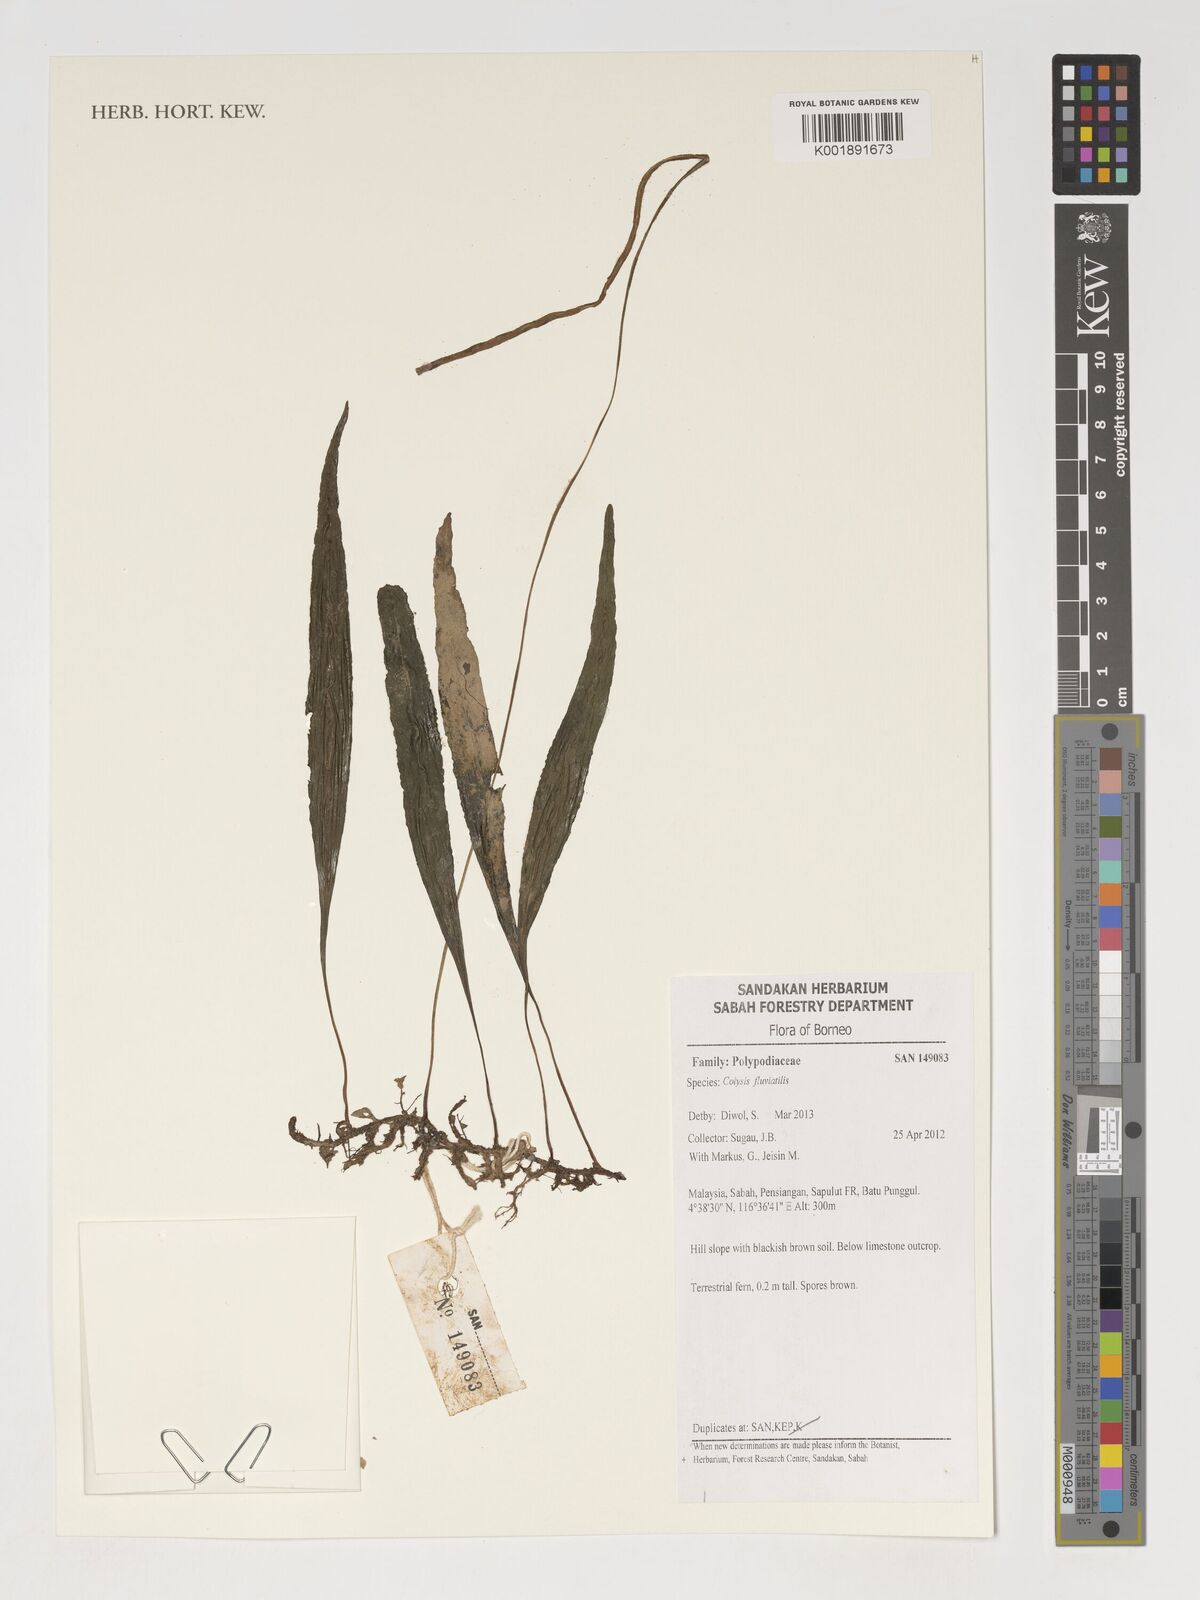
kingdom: Plantae
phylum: Tracheophyta
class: Polypodiopsida
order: Polypodiales
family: Polypodiaceae
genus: Leptochilus
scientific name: Leptochilus sarawakensis
